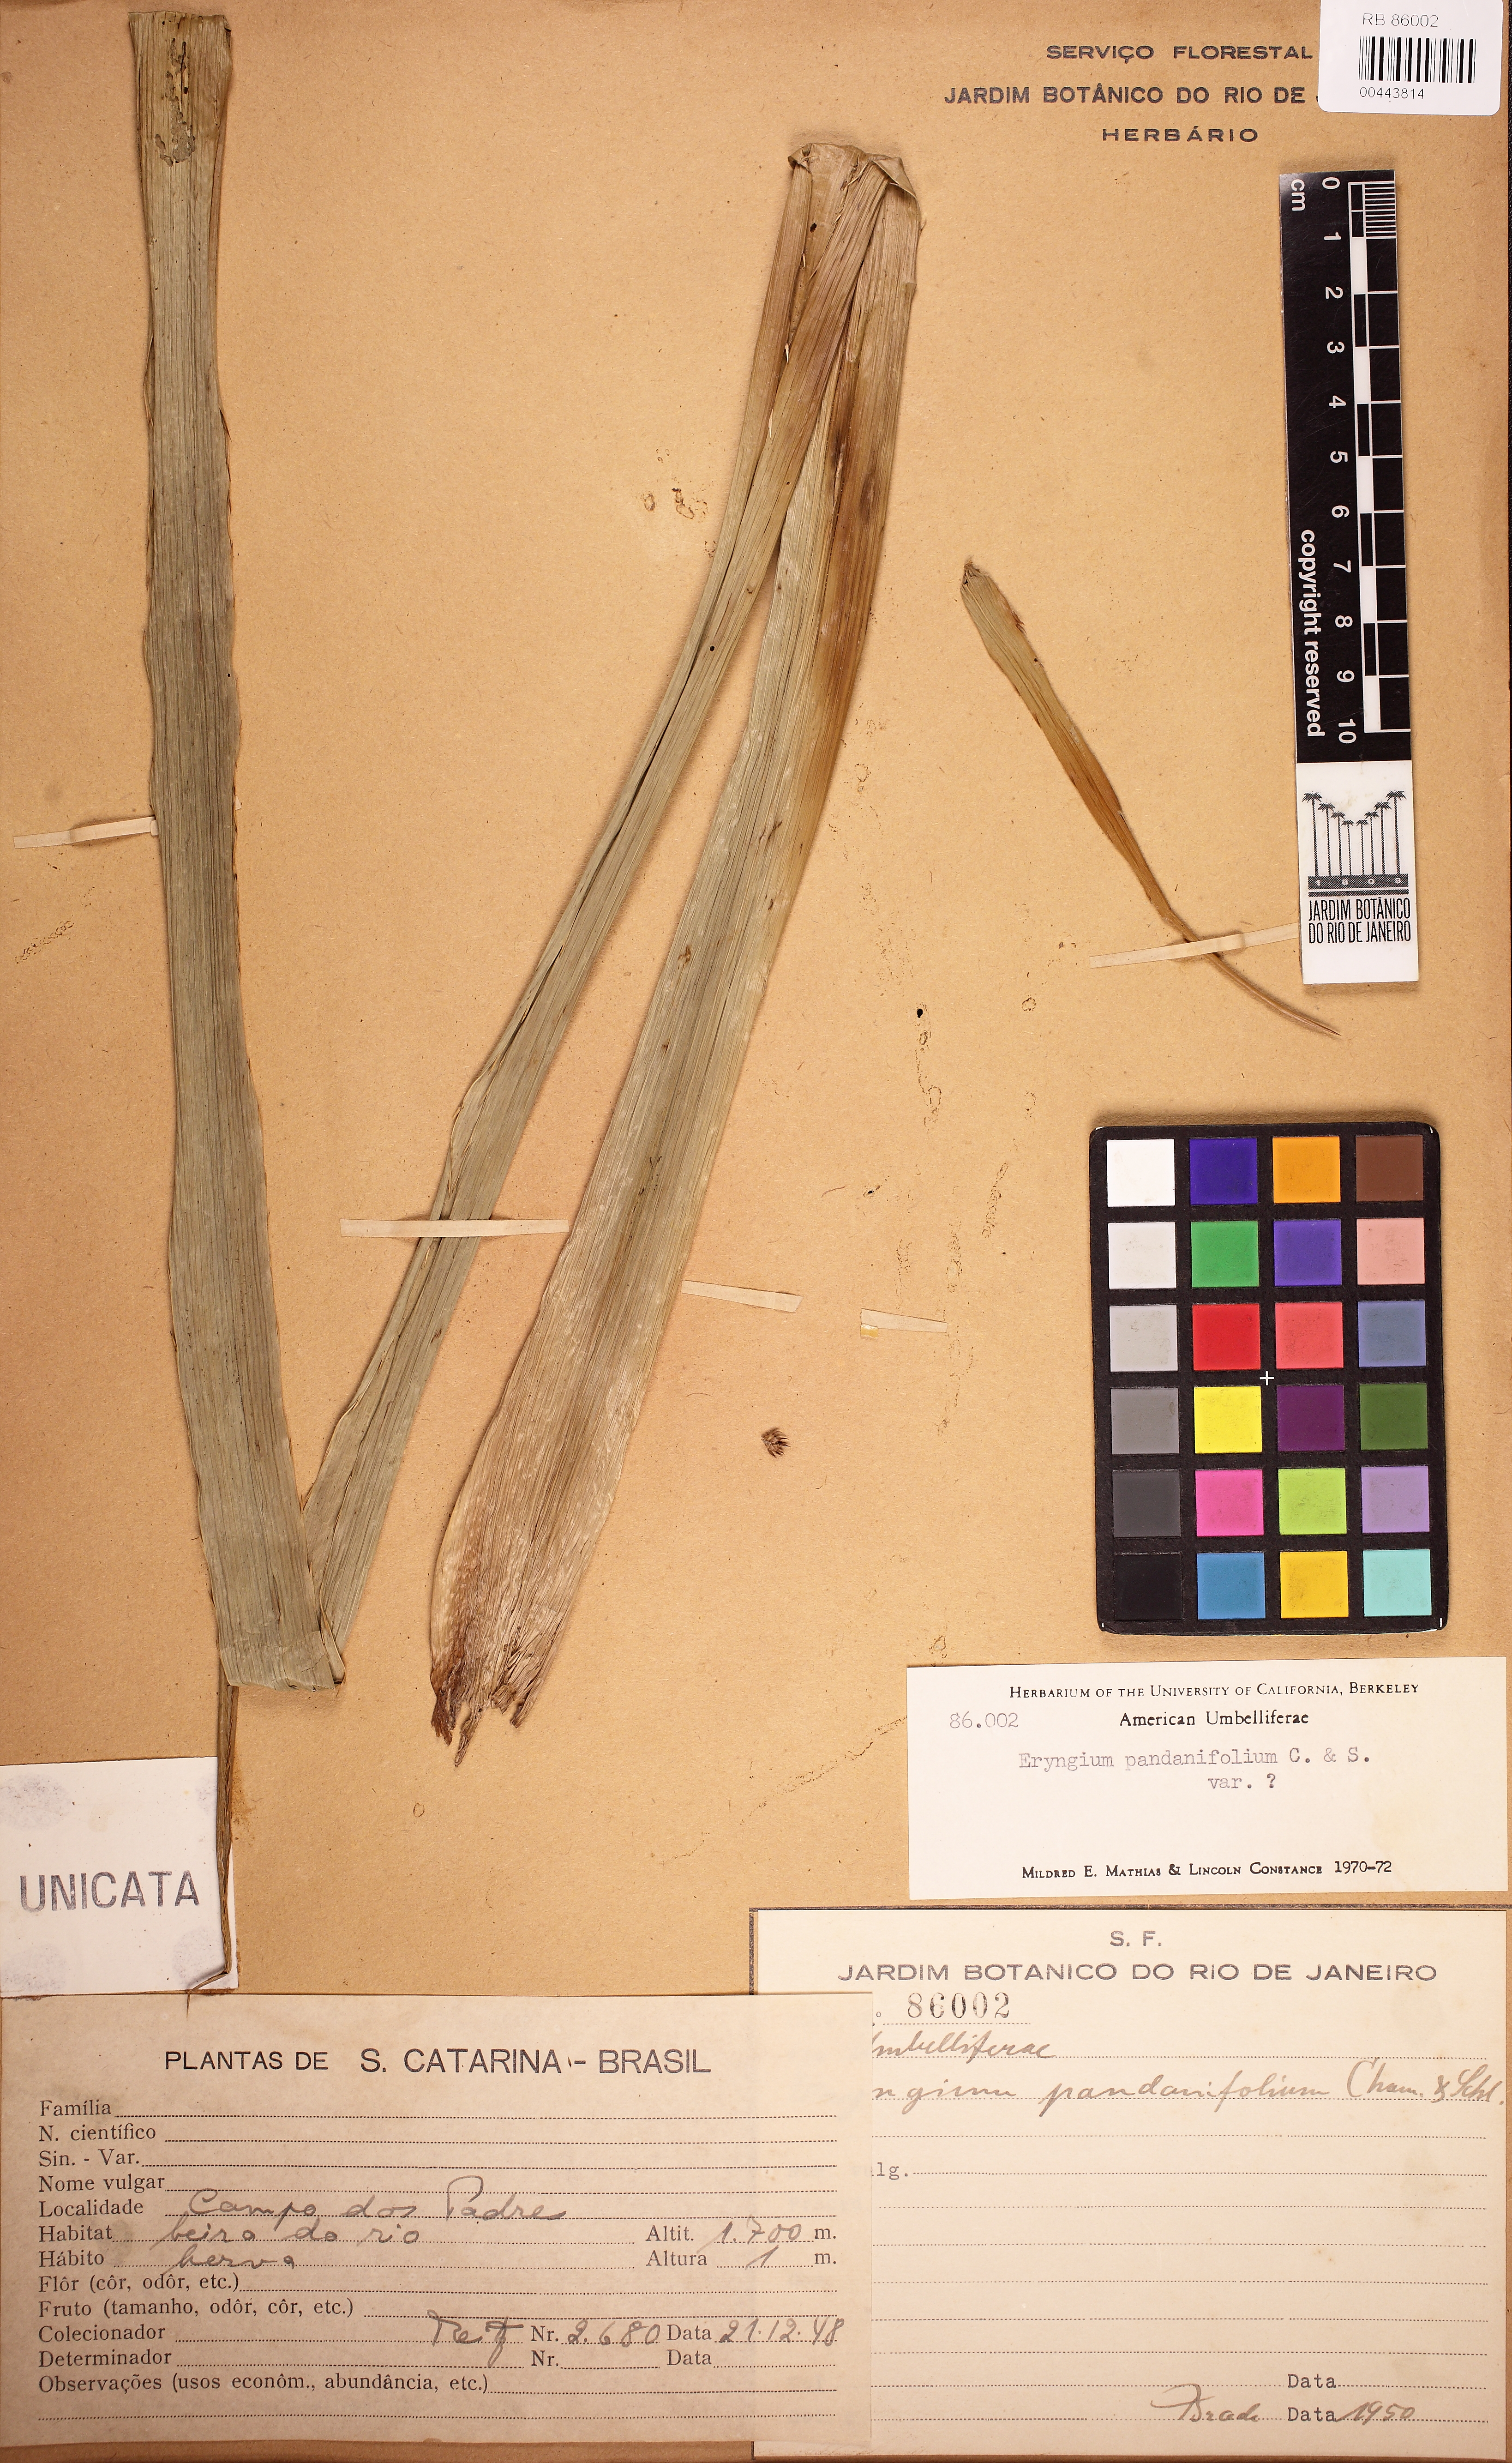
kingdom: Plantae
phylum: Tracheophyta
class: Magnoliopsida
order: Apiales
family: Apiaceae
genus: Eryngium
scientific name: Eryngium pandanifolium
